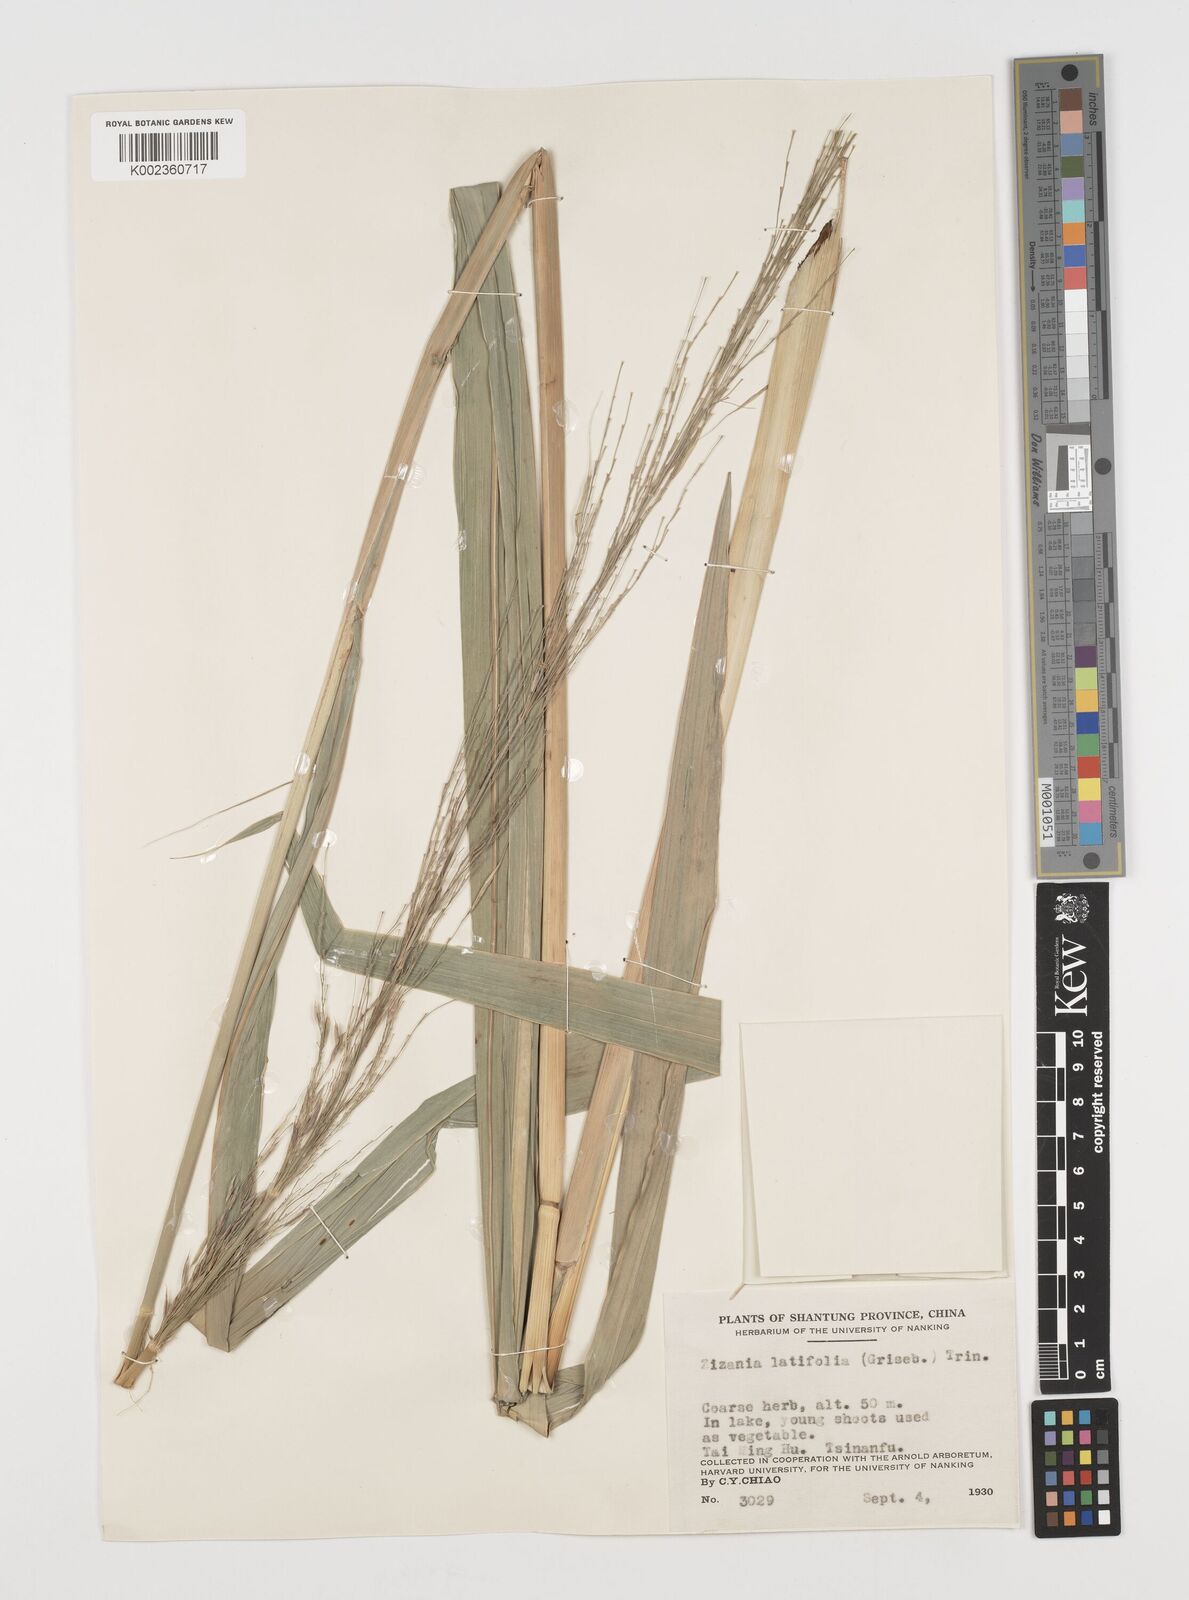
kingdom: Plantae
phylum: Tracheophyta
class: Liliopsida
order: Poales
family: Poaceae
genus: Zizania
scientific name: Zizania latifolia
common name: Manchurian wildrice
